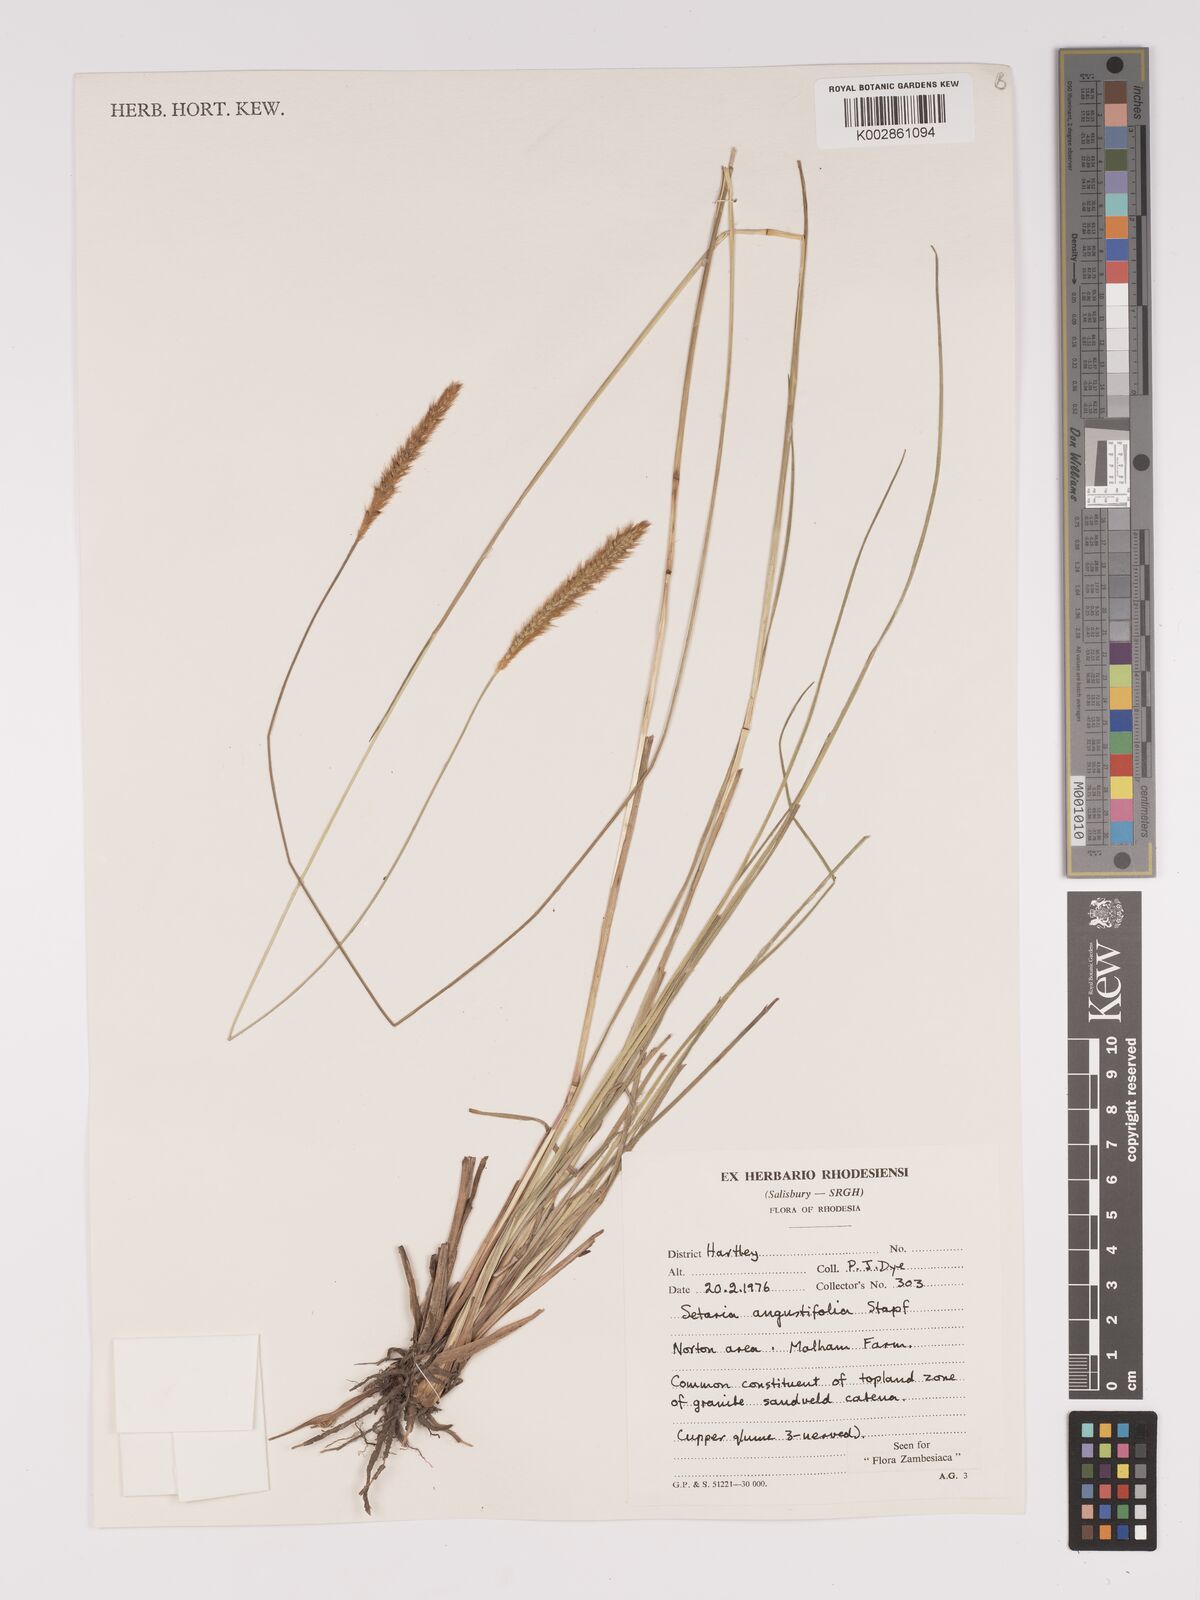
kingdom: Plantae
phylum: Tracheophyta
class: Liliopsida
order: Poales
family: Poaceae
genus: Setaria
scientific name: Setaria sphacelata
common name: African bristlegrass
